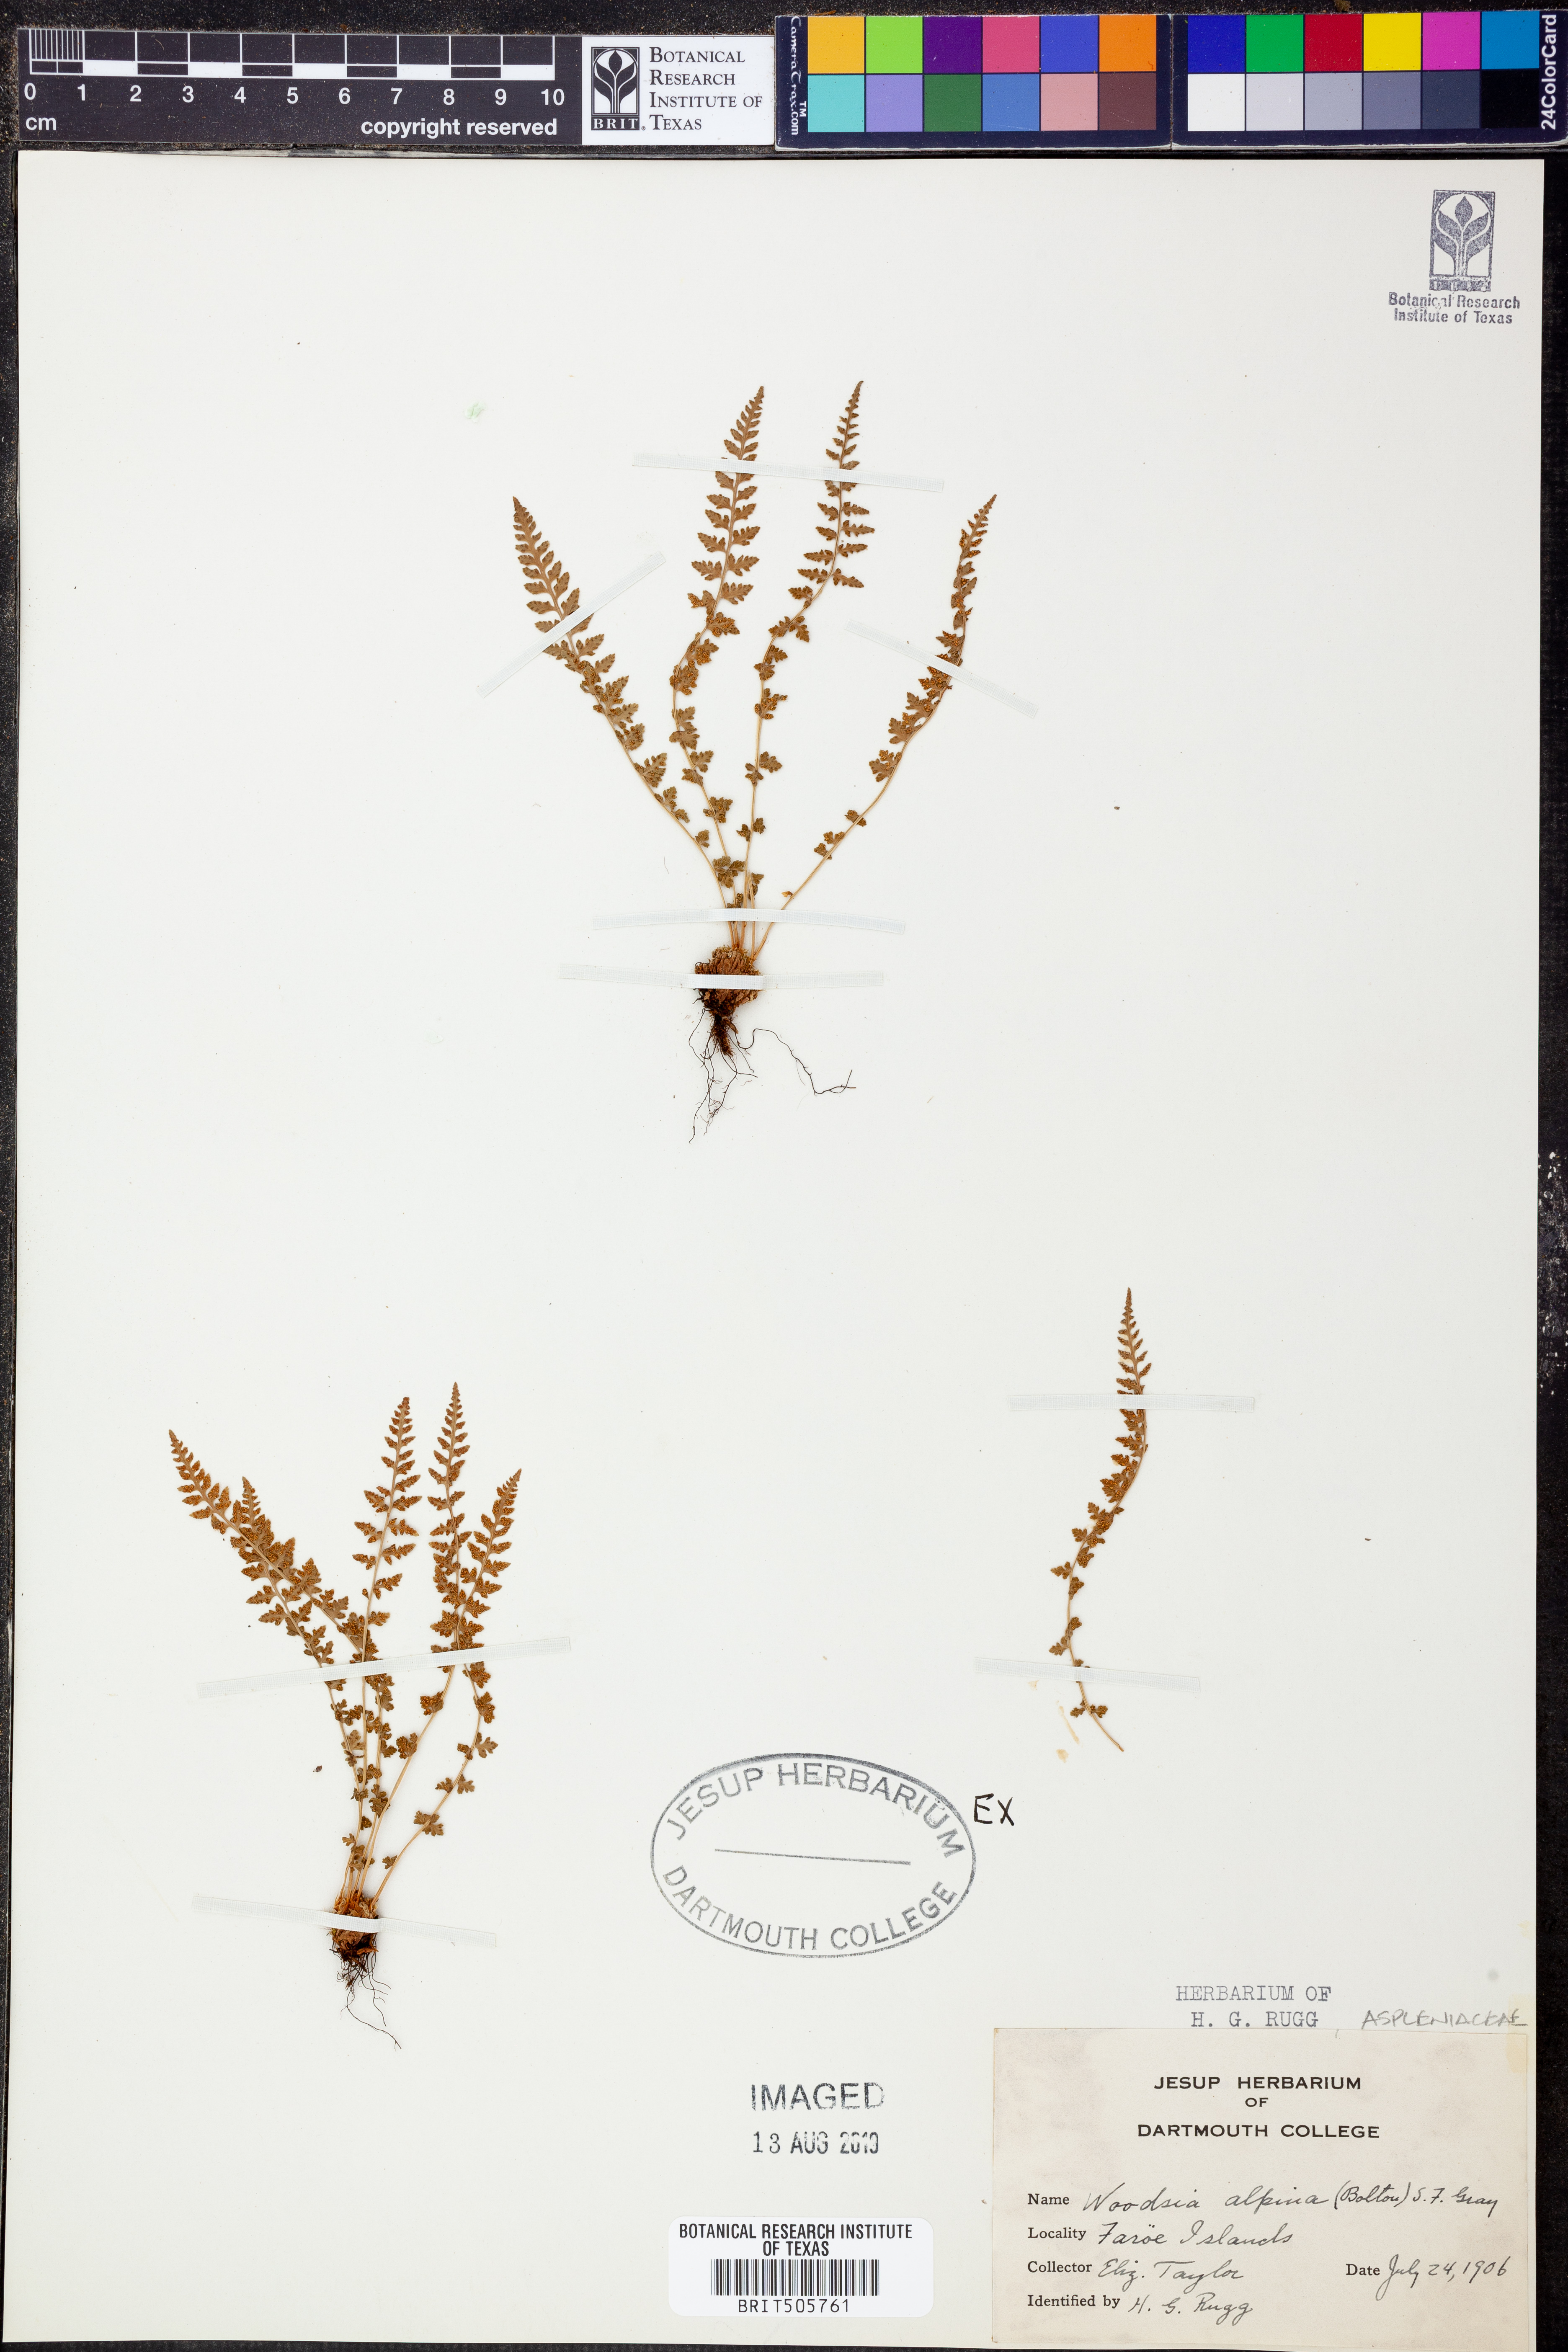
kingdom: Plantae
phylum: Tracheophyta
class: Polypodiopsida
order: Polypodiales
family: Woodsiaceae
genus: Woodsia
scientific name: Woodsia alpina
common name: Alpine woodsia
